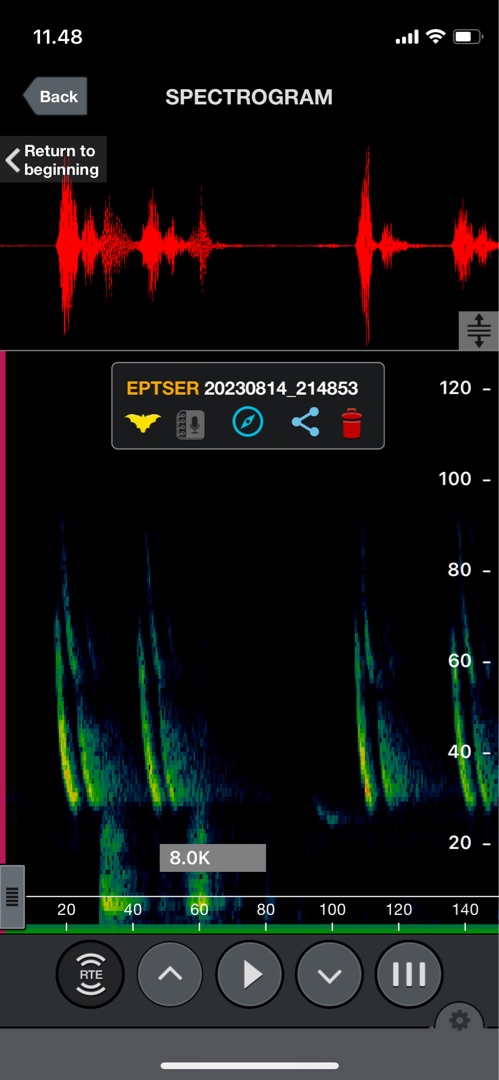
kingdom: Animalia
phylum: Chordata
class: Mammalia
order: Chiroptera
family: Vespertilionidae
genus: Eptesicus
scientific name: Eptesicus serotinus
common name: Sydflagermus
